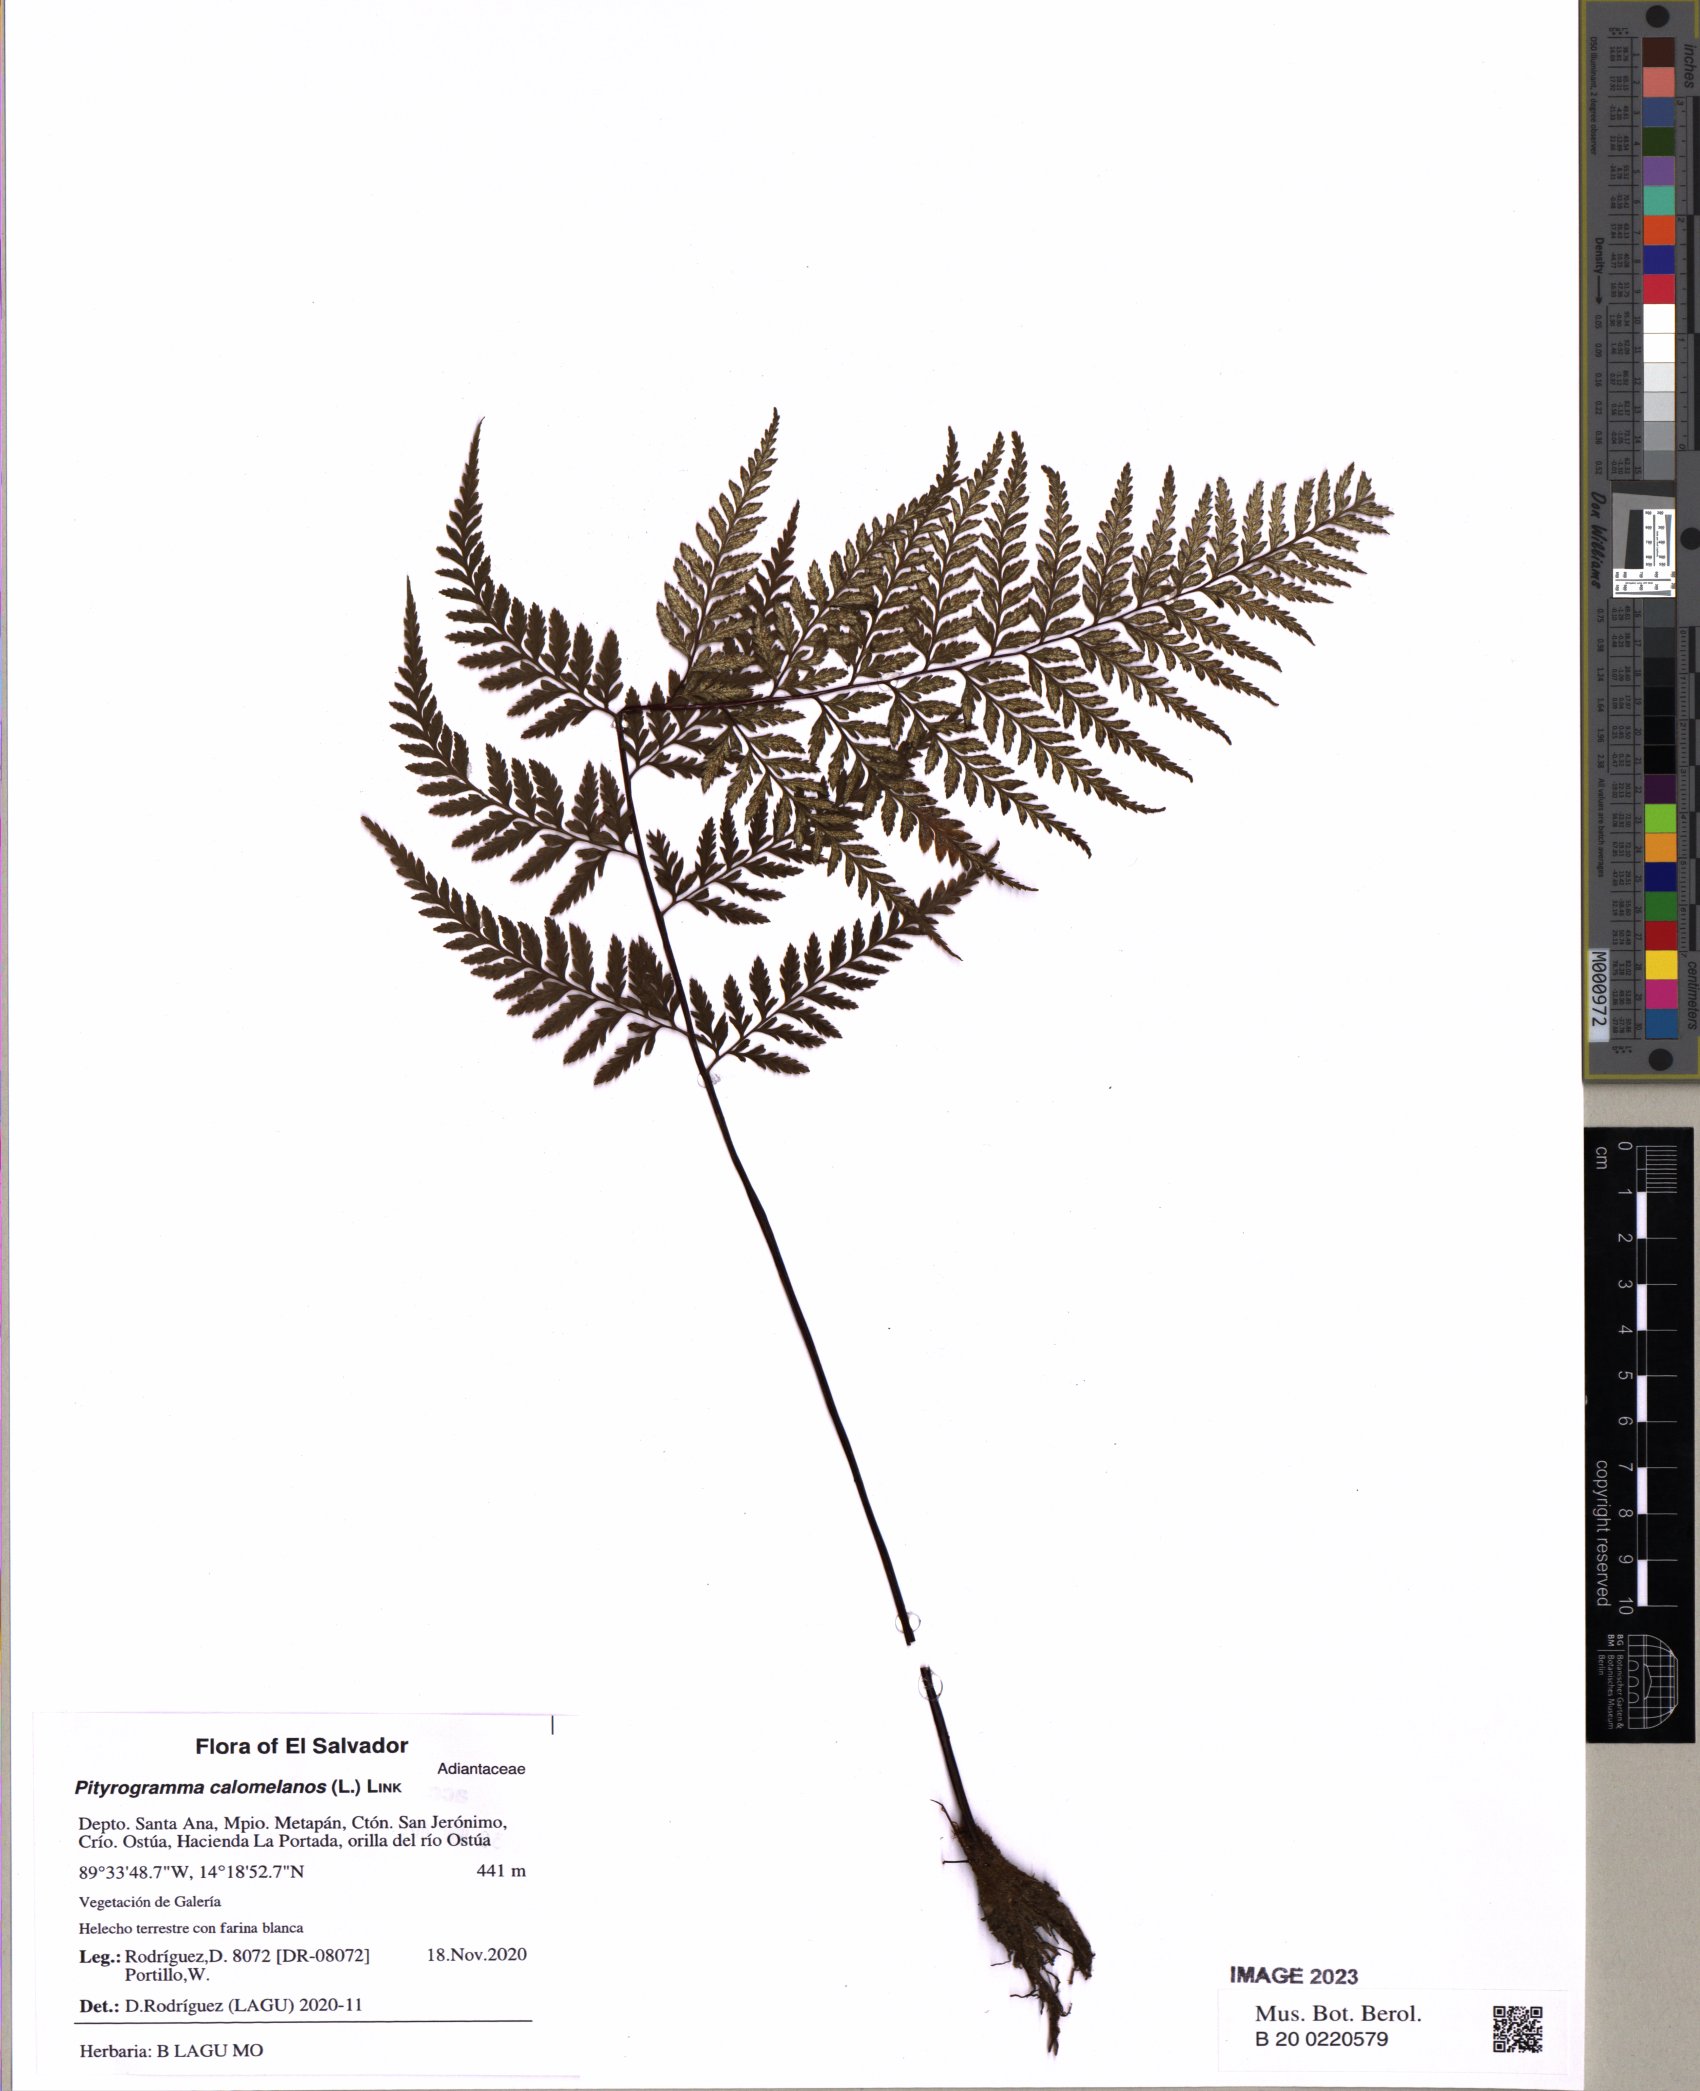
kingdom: Plantae
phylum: Tracheophyta
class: Polypodiopsida
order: Polypodiales
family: Pteridaceae
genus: Pityrogramma
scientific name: Pityrogramma calomelanos
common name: Dixie silverback fern
